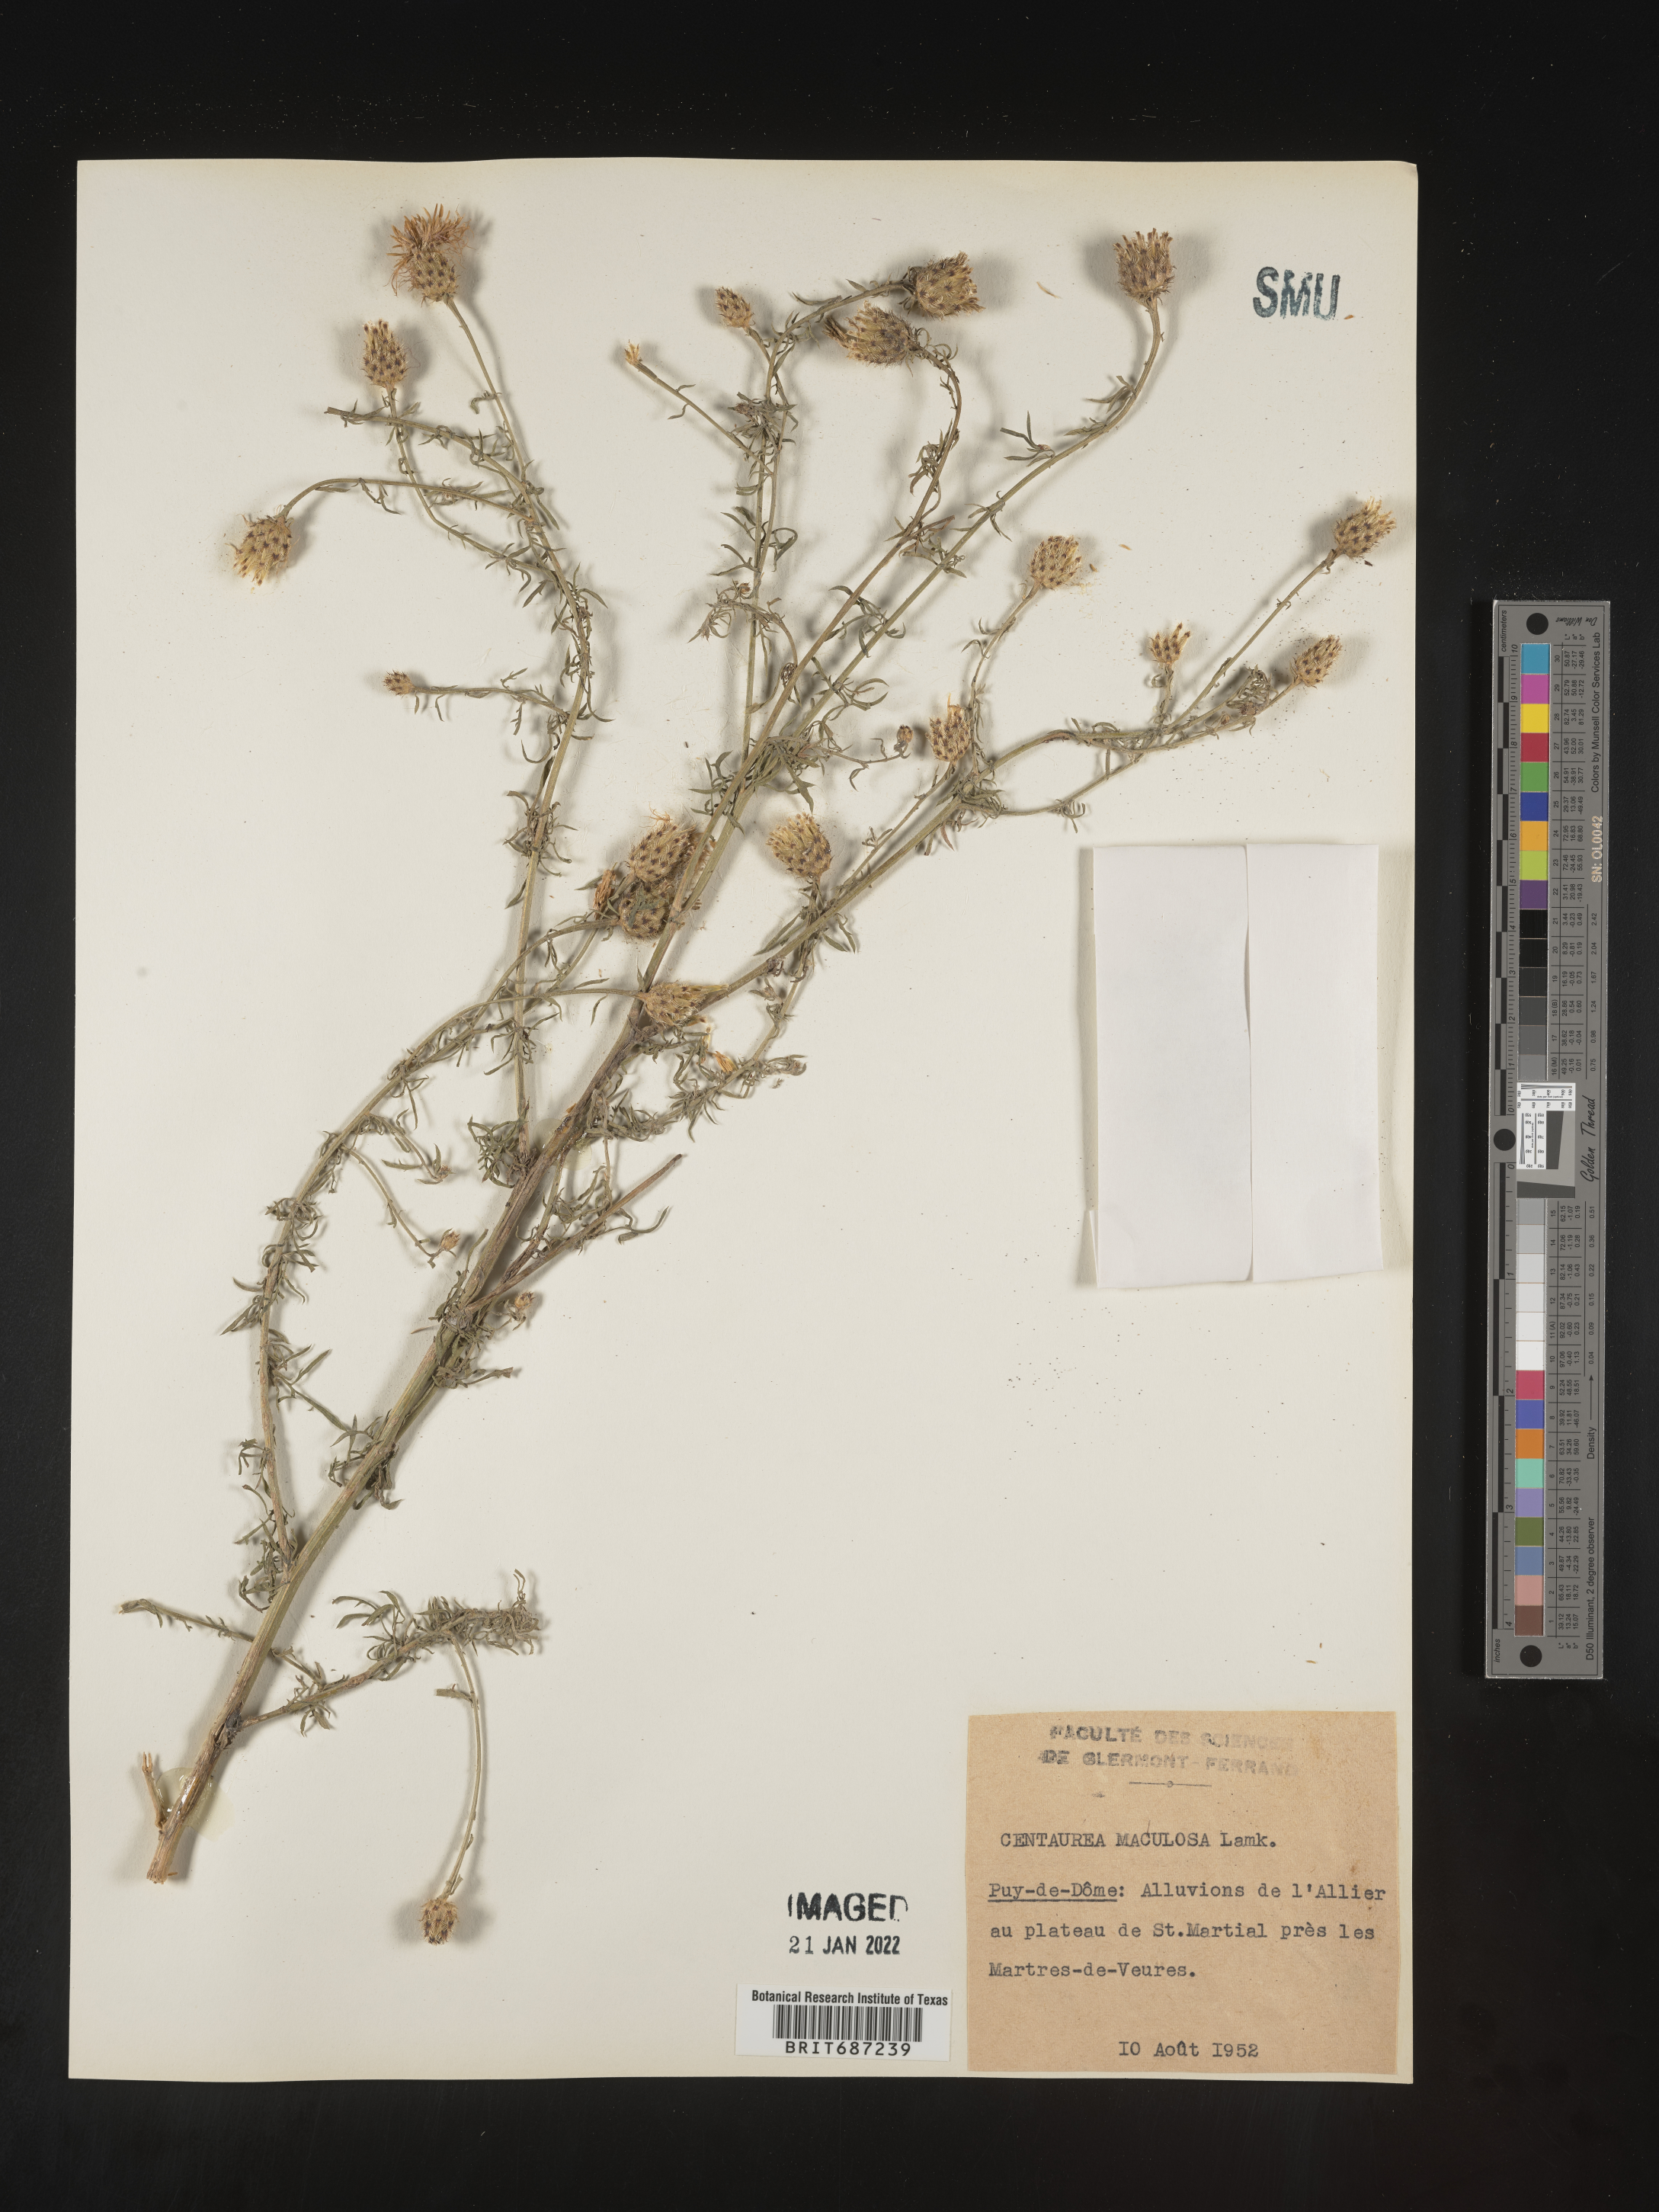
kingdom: Plantae
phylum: Tracheophyta
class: Magnoliopsida
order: Asterales
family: Asteraceae
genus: Centaurea
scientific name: Centaurea
